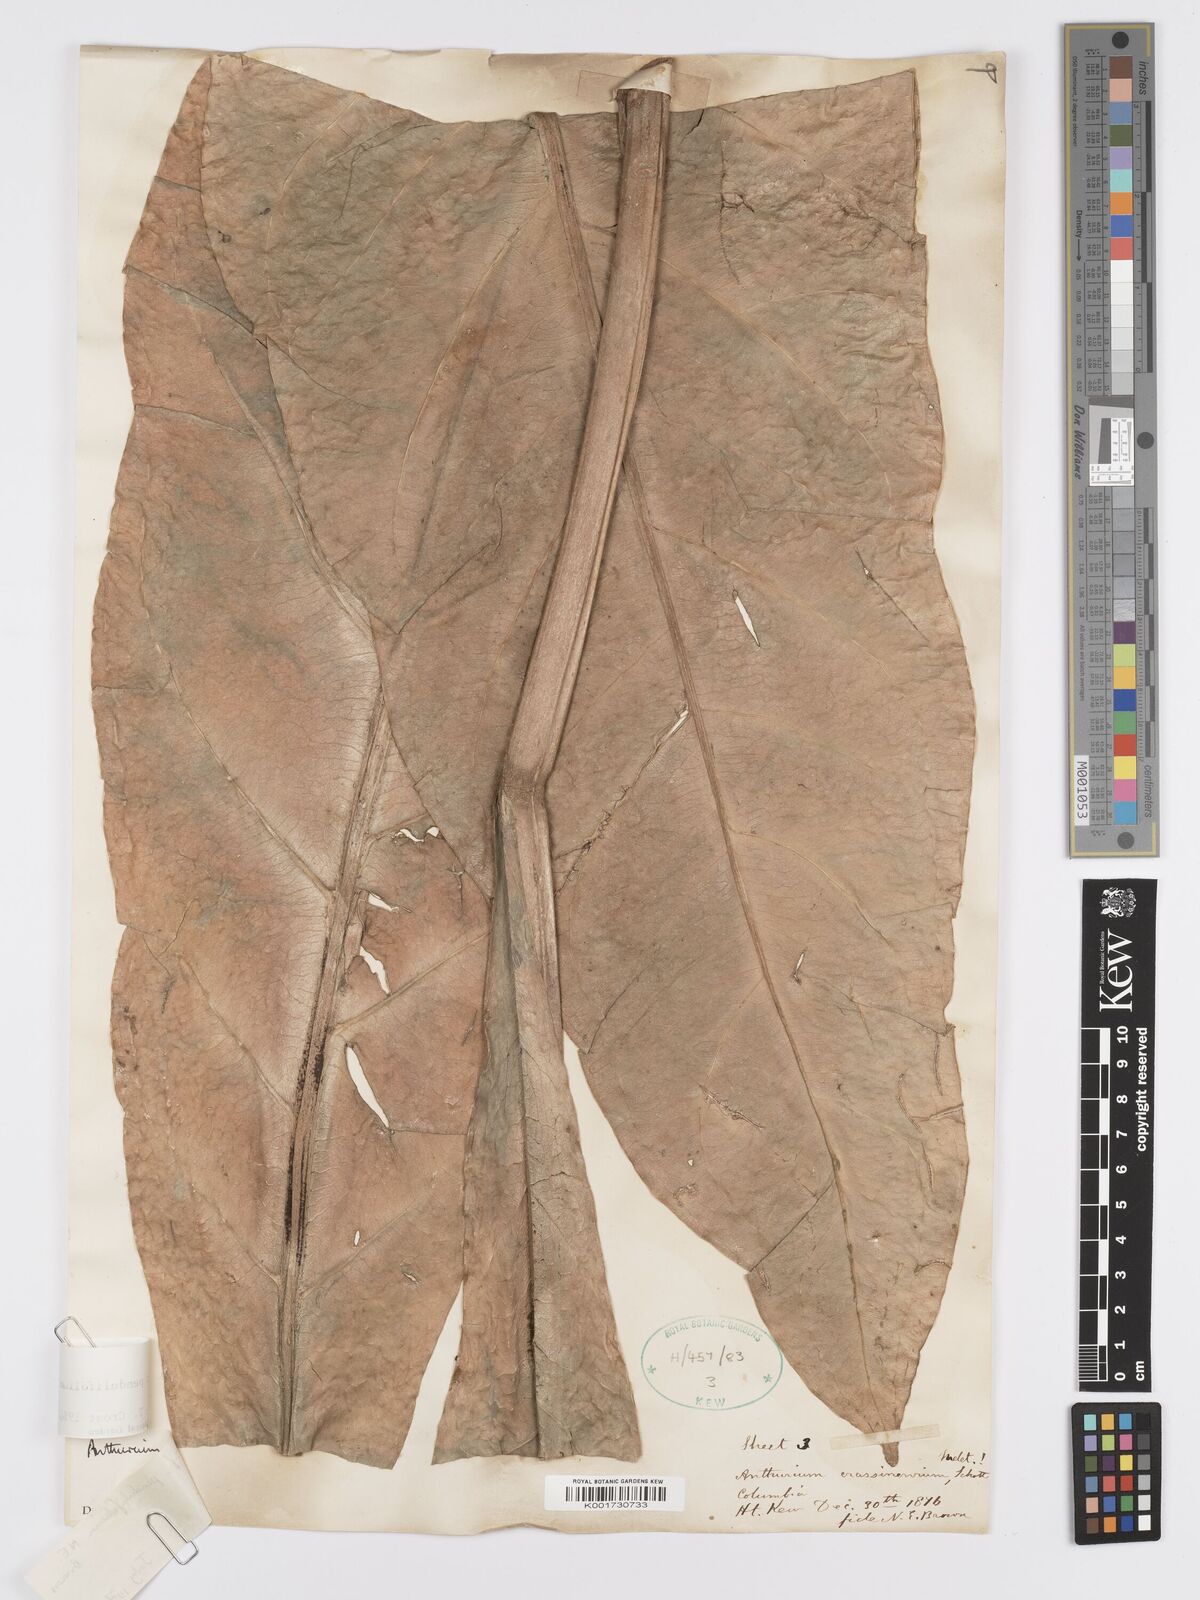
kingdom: Plantae
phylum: Tracheophyta
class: Liliopsida
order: Alismatales
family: Araceae
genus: Anthurium
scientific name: Anthurium pendulifolium
